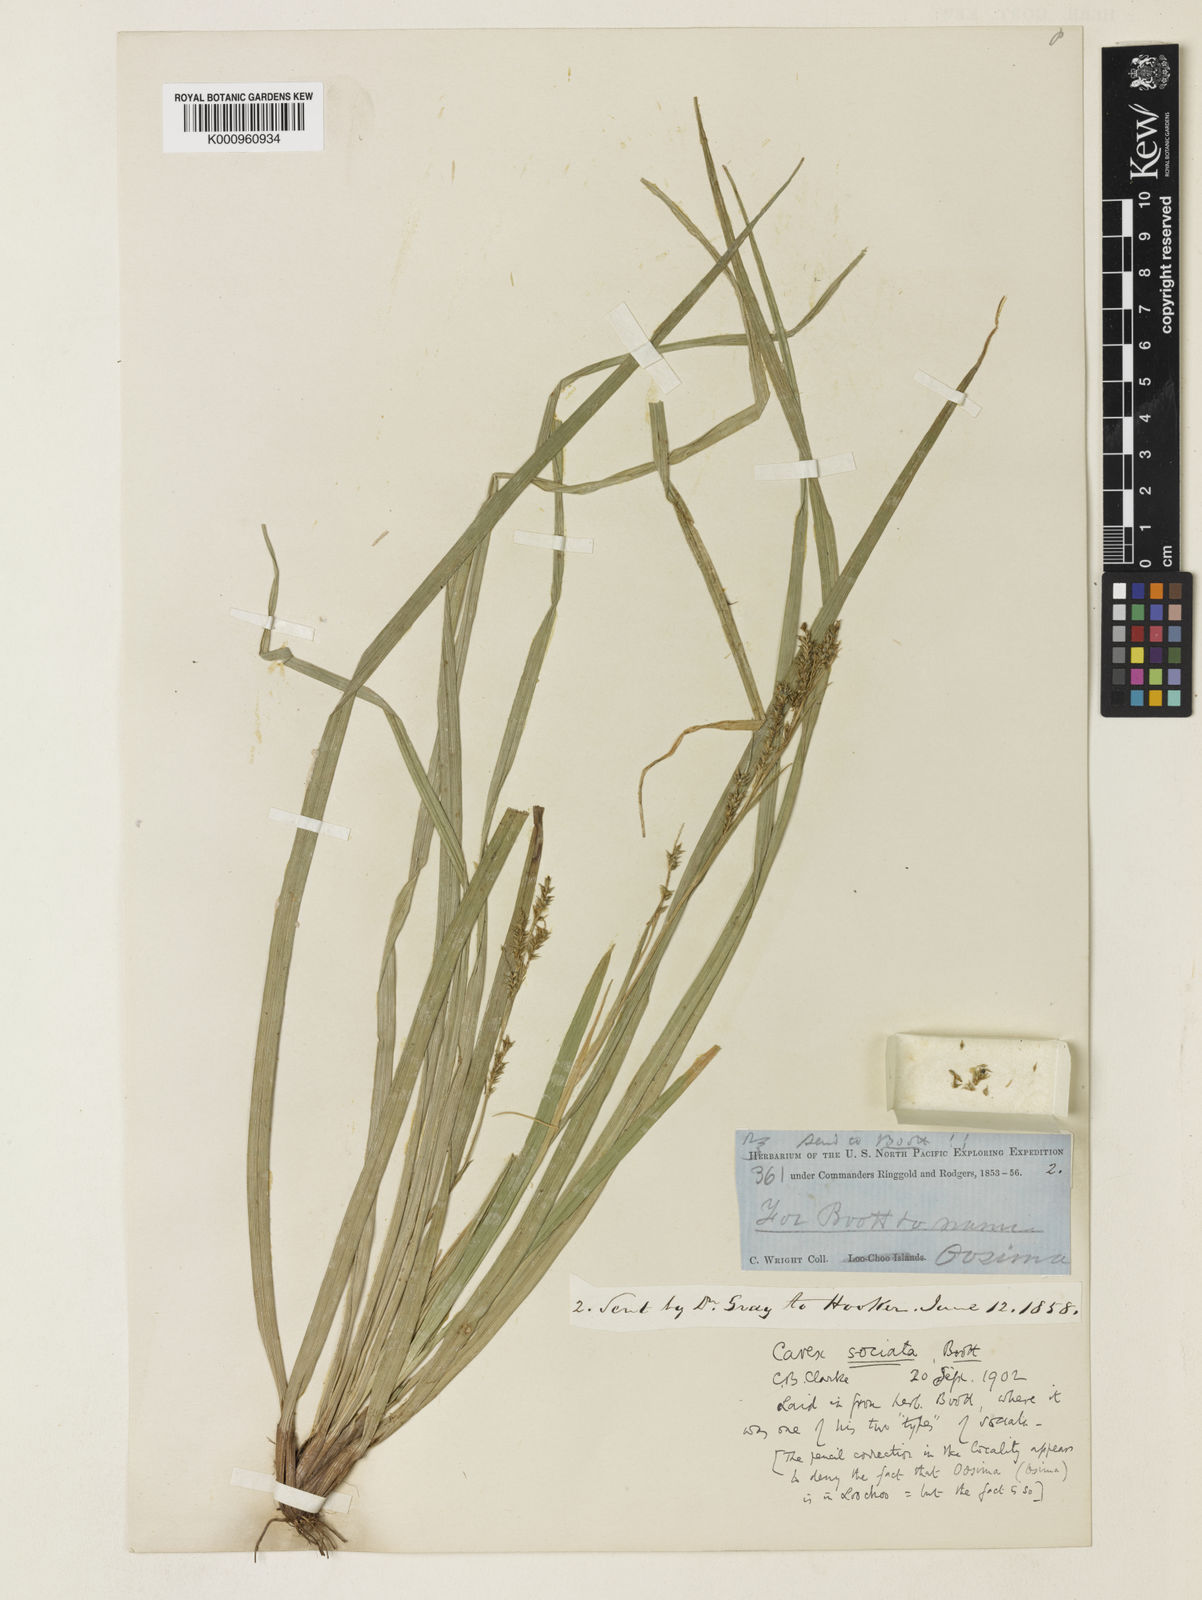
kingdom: Plantae
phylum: Tracheophyta
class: Liliopsida
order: Poales
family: Cyperaceae
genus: Carex
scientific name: Carex chinensis
